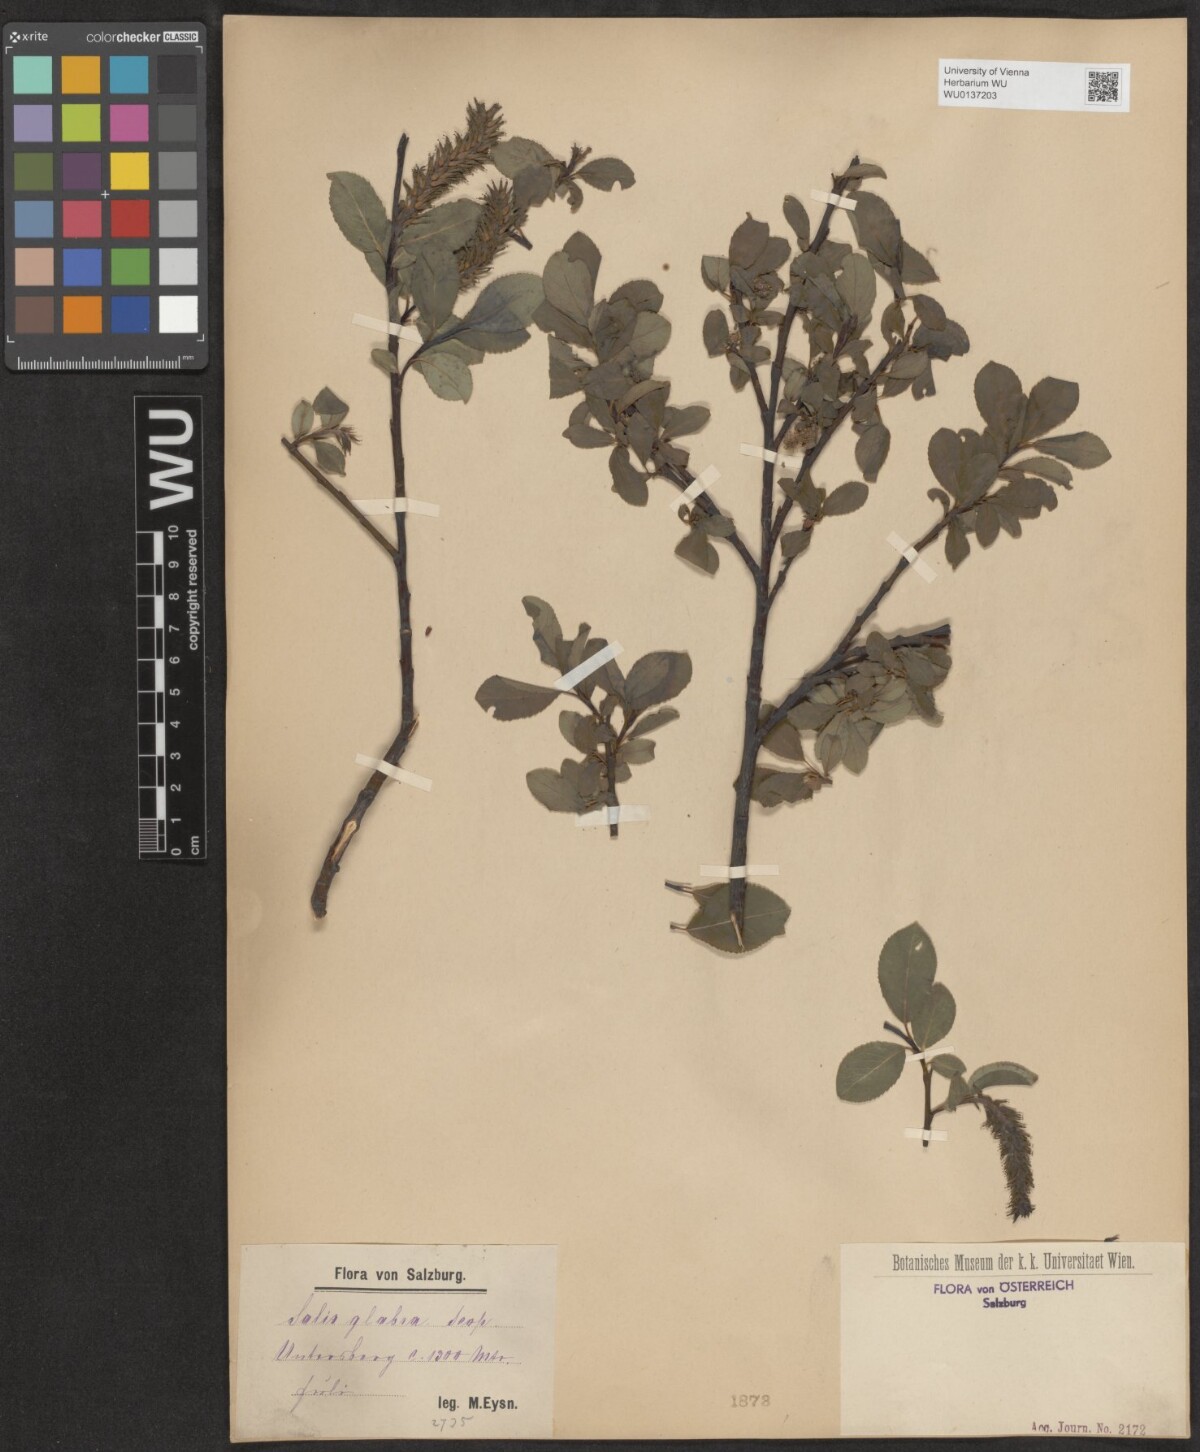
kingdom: Plantae
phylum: Tracheophyta
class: Magnoliopsida
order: Malpighiales
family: Salicaceae
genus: Salix
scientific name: Salix glabra
